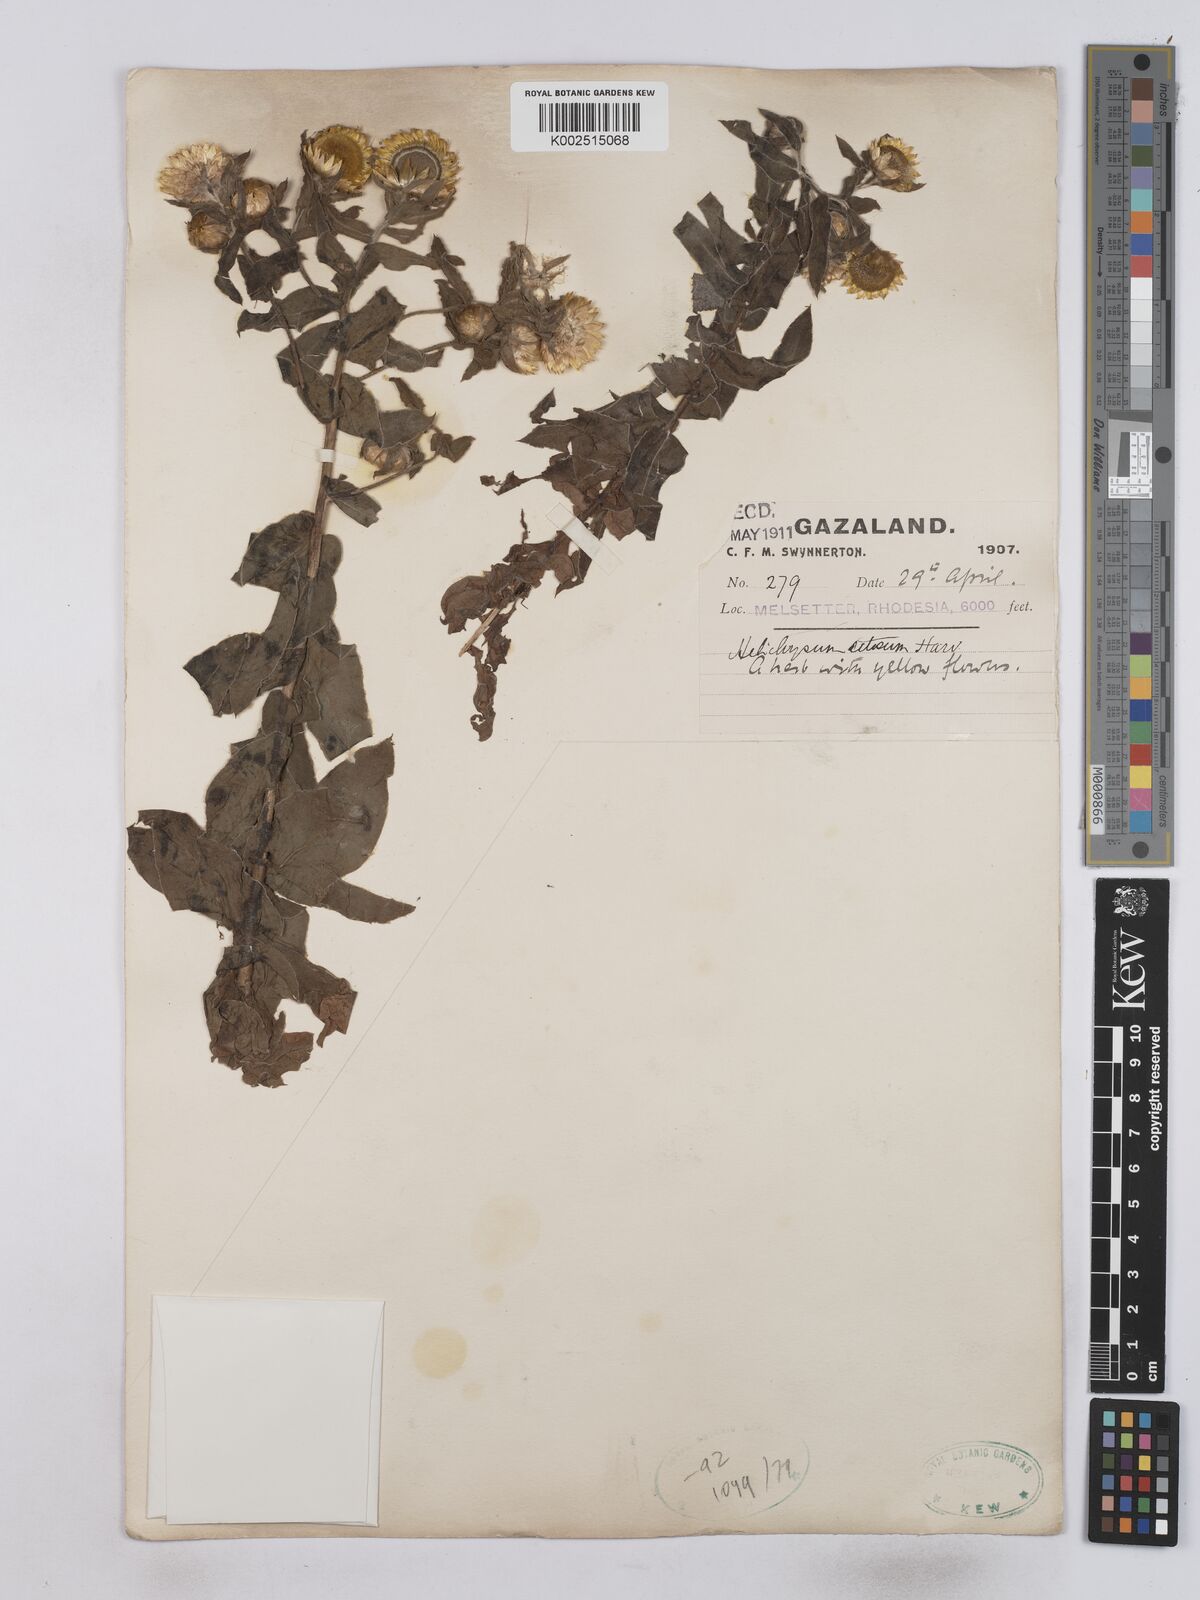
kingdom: Plantae
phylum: Tracheophyta
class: Magnoliopsida
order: Asterales
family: Asteraceae
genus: Helichrysum
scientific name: Helichrysum setosum
